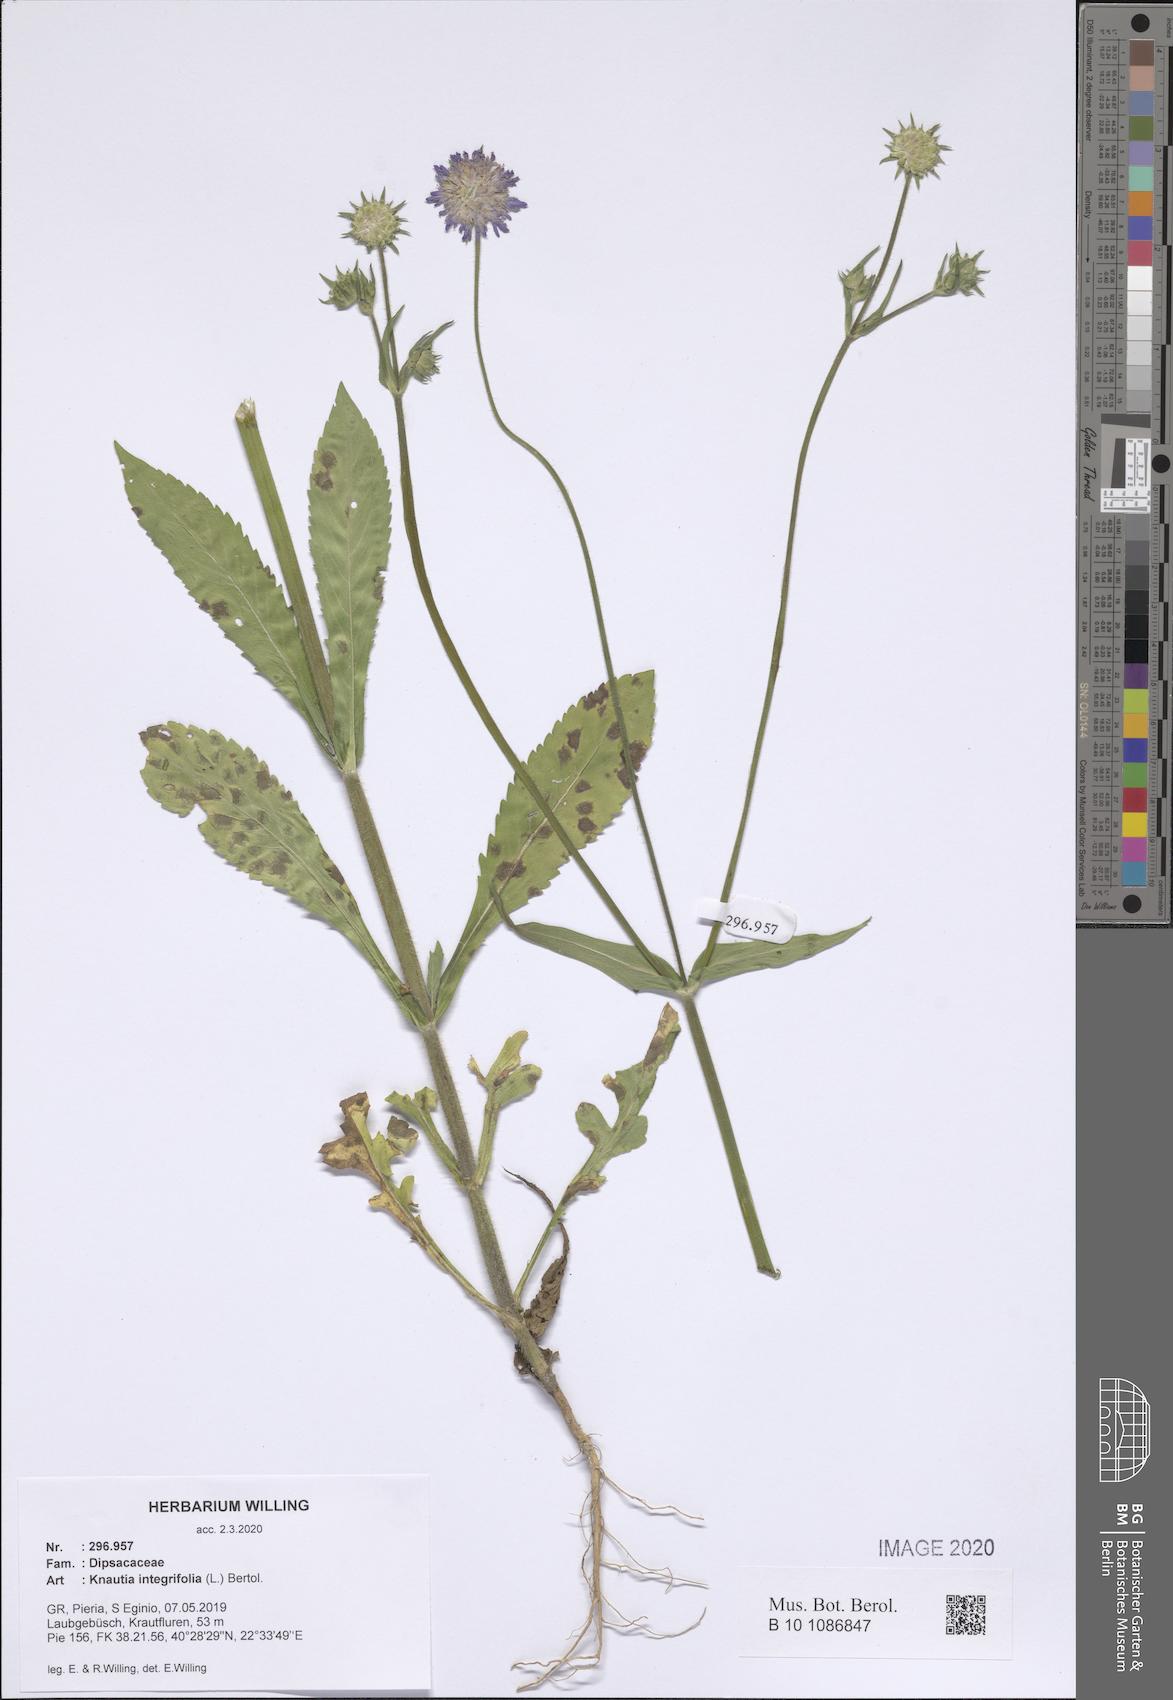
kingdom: Plantae
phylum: Tracheophyta
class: Magnoliopsida
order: Dipsacales
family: Caprifoliaceae
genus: Knautia
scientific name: Knautia integrifolia
